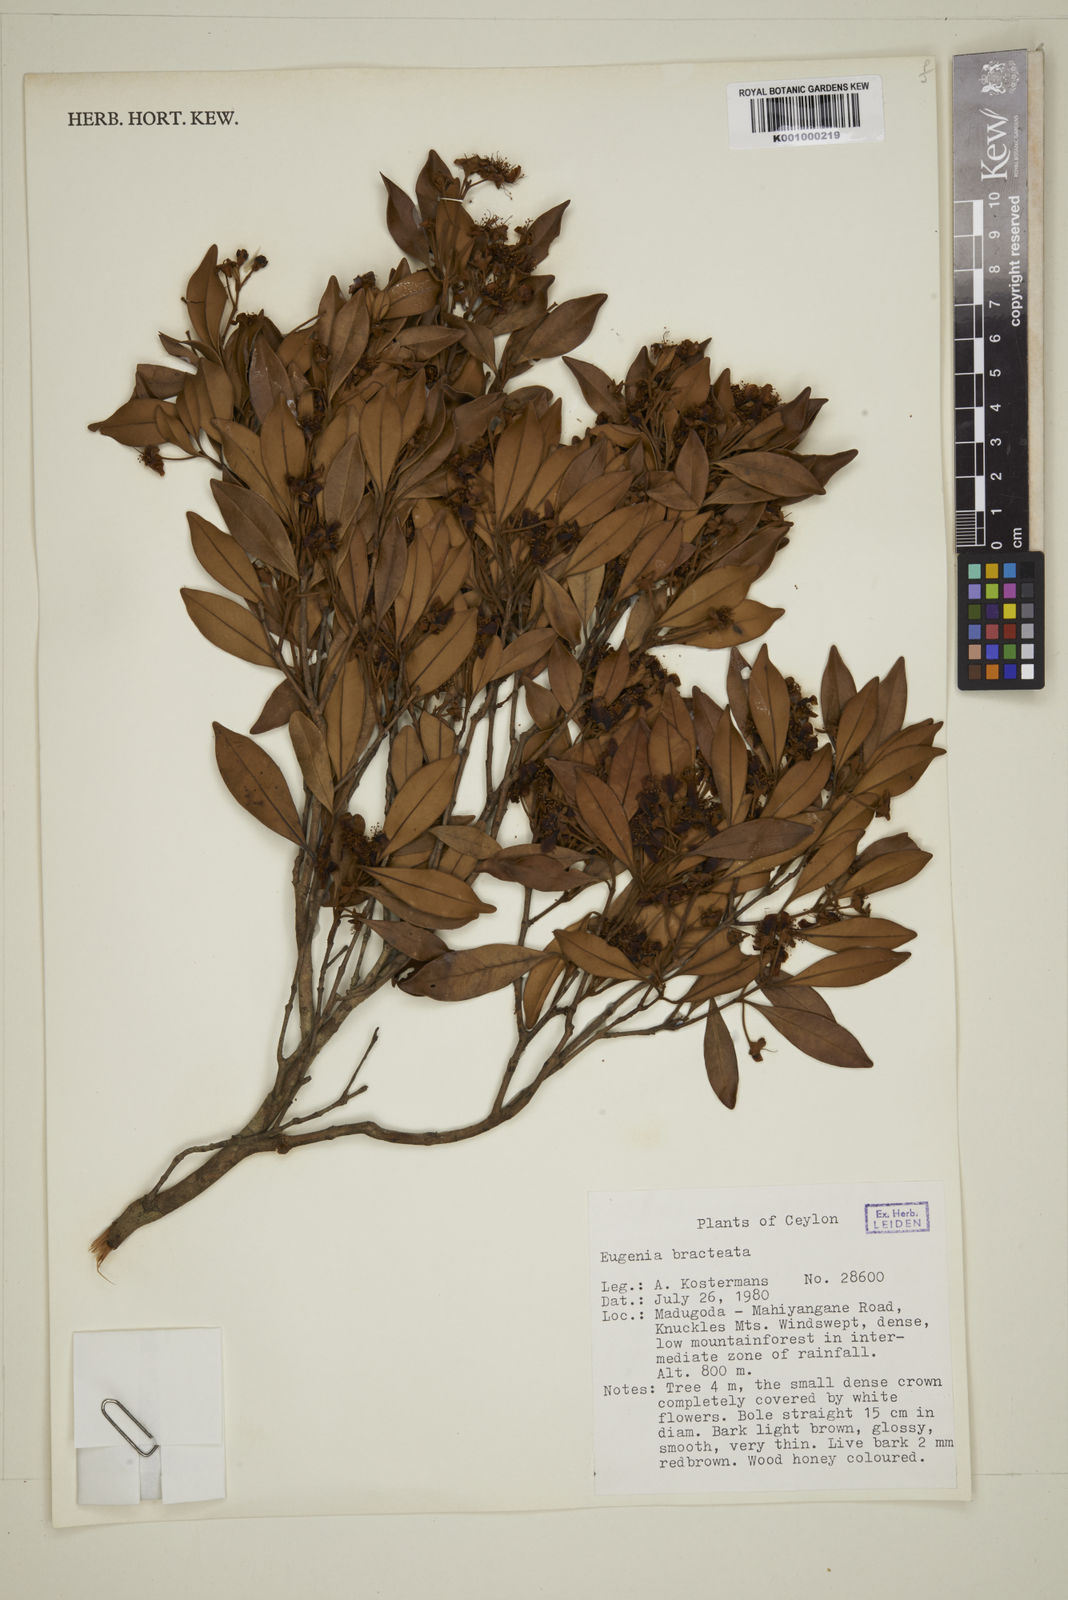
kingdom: Plantae
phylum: Tracheophyta
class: Magnoliopsida
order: Myrtales
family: Myrtaceae
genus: Eugenia
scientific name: Eugenia pseudopsidium
